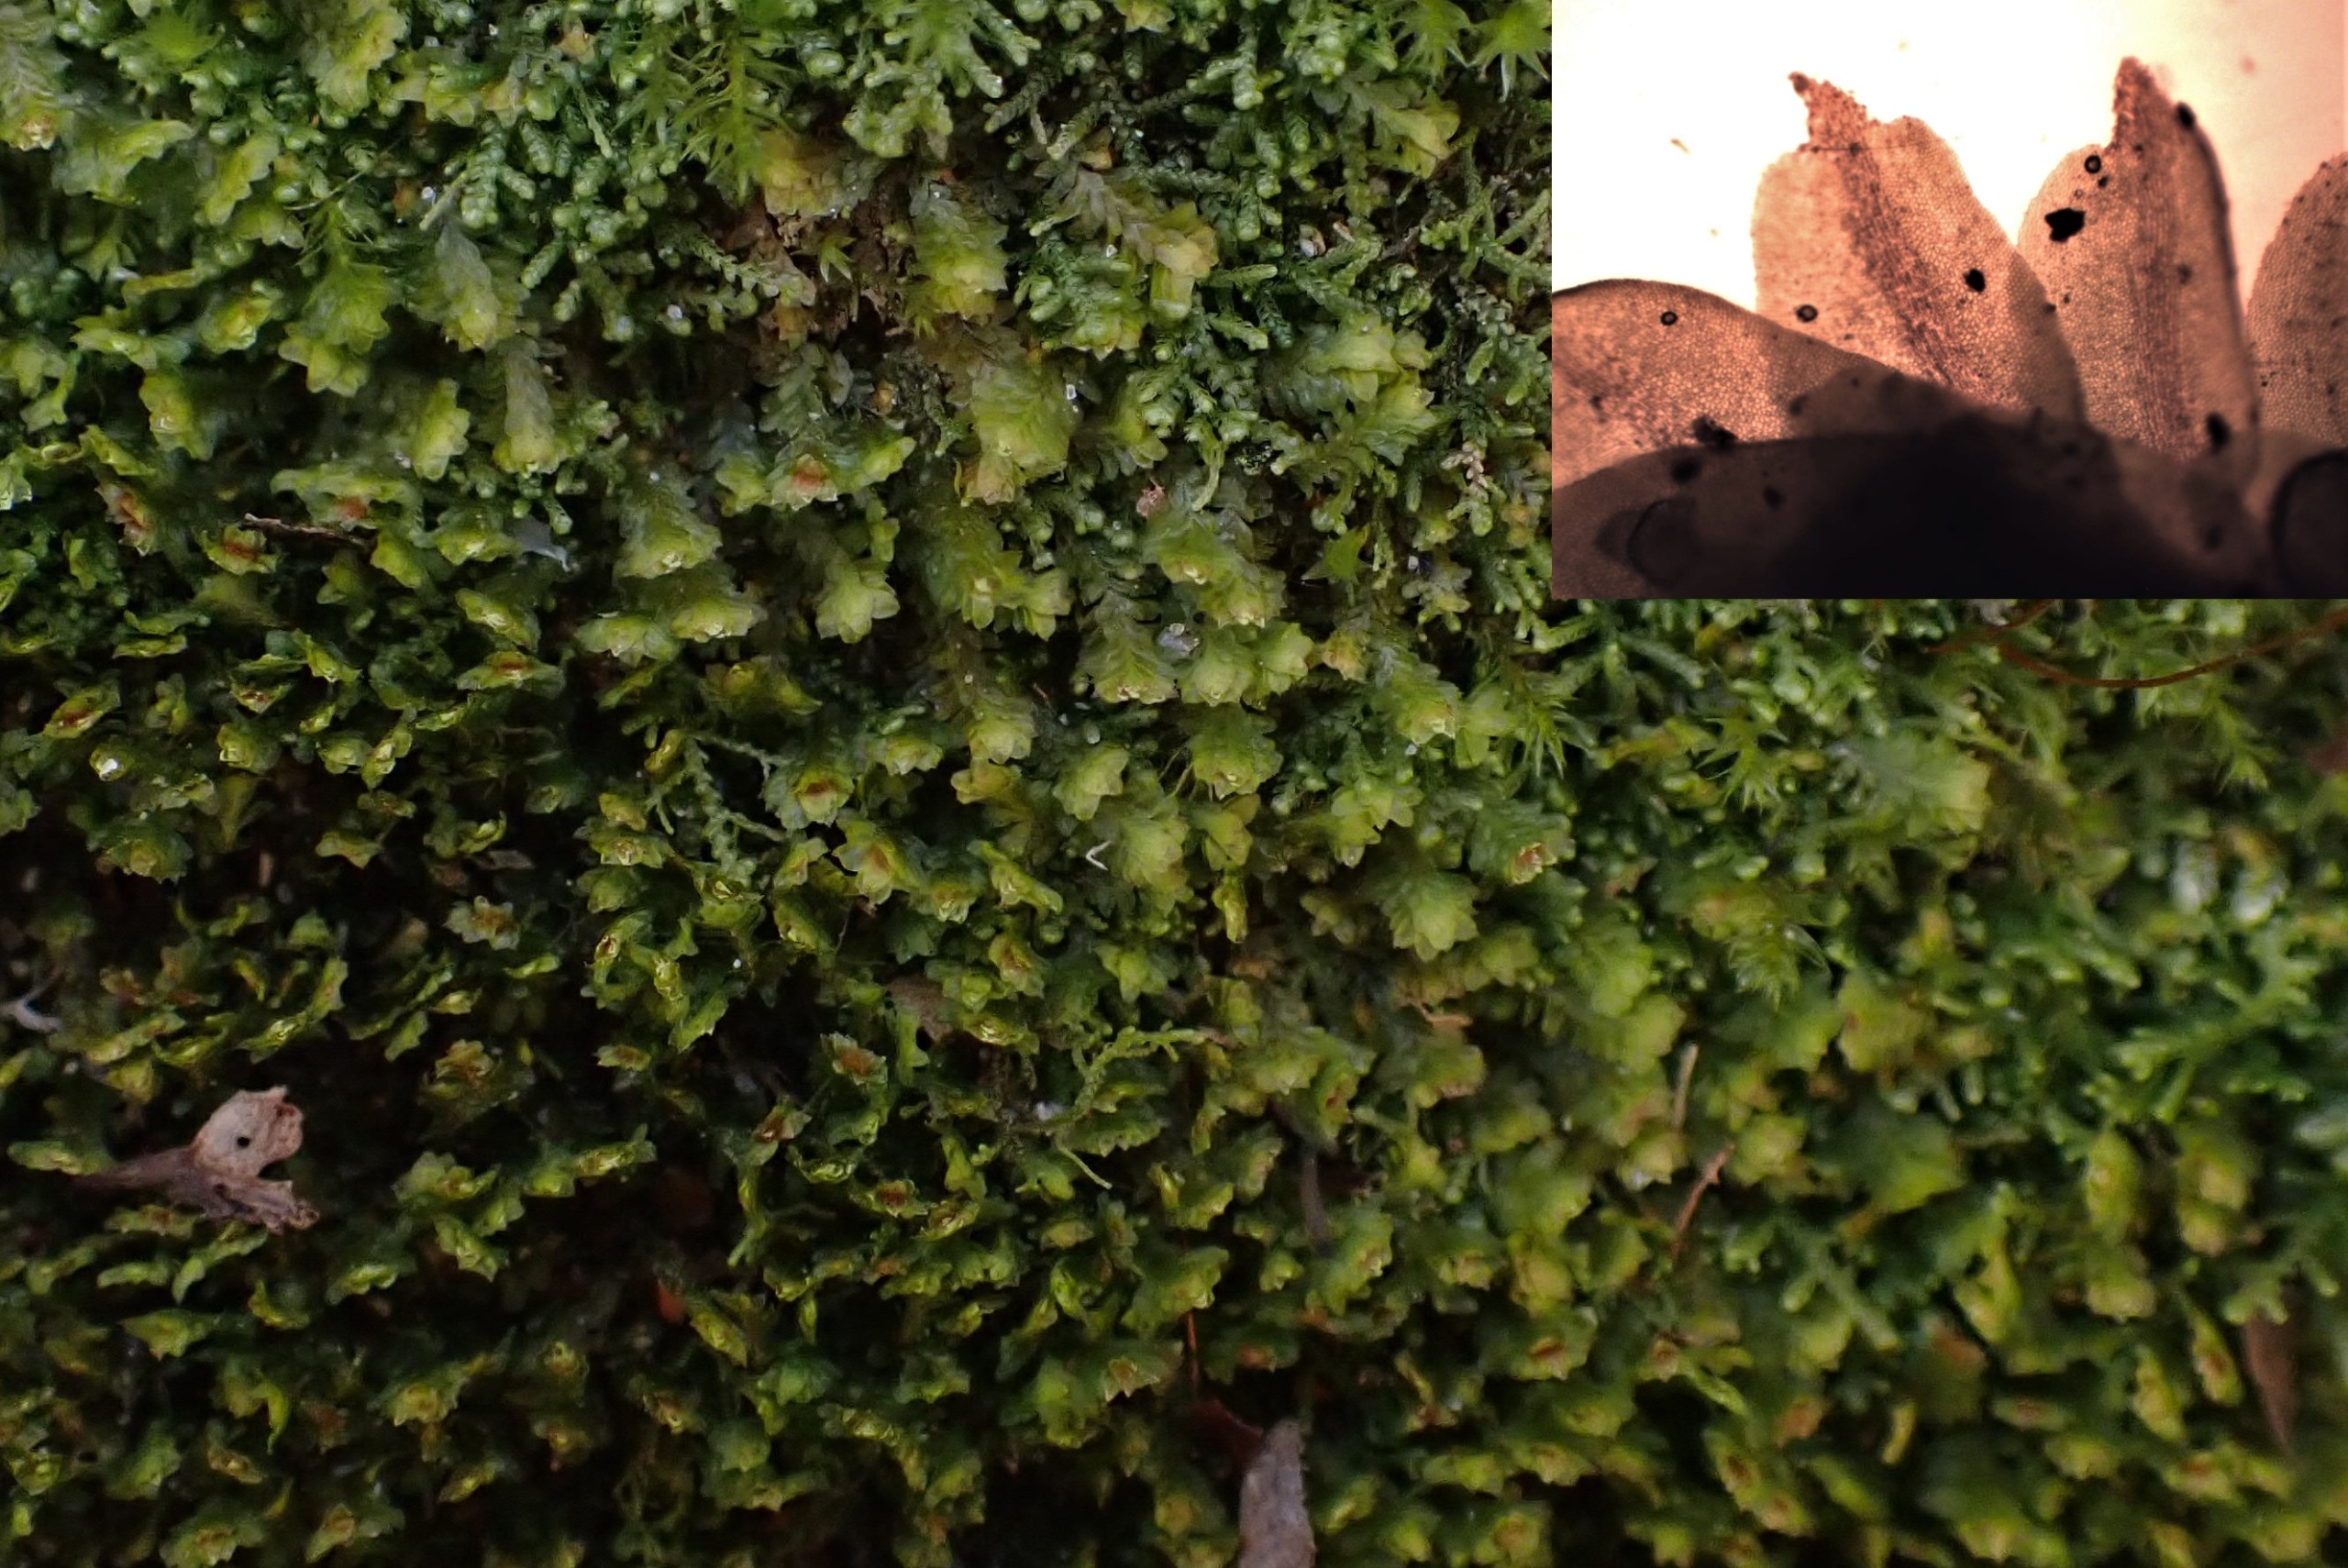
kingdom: Plantae
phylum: Marchantiophyta
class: Jungermanniopsida
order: Jungermanniales
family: Scapaniaceae
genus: Diplophyllum
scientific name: Diplophyllum albicans
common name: Stribet dobbeltblad
